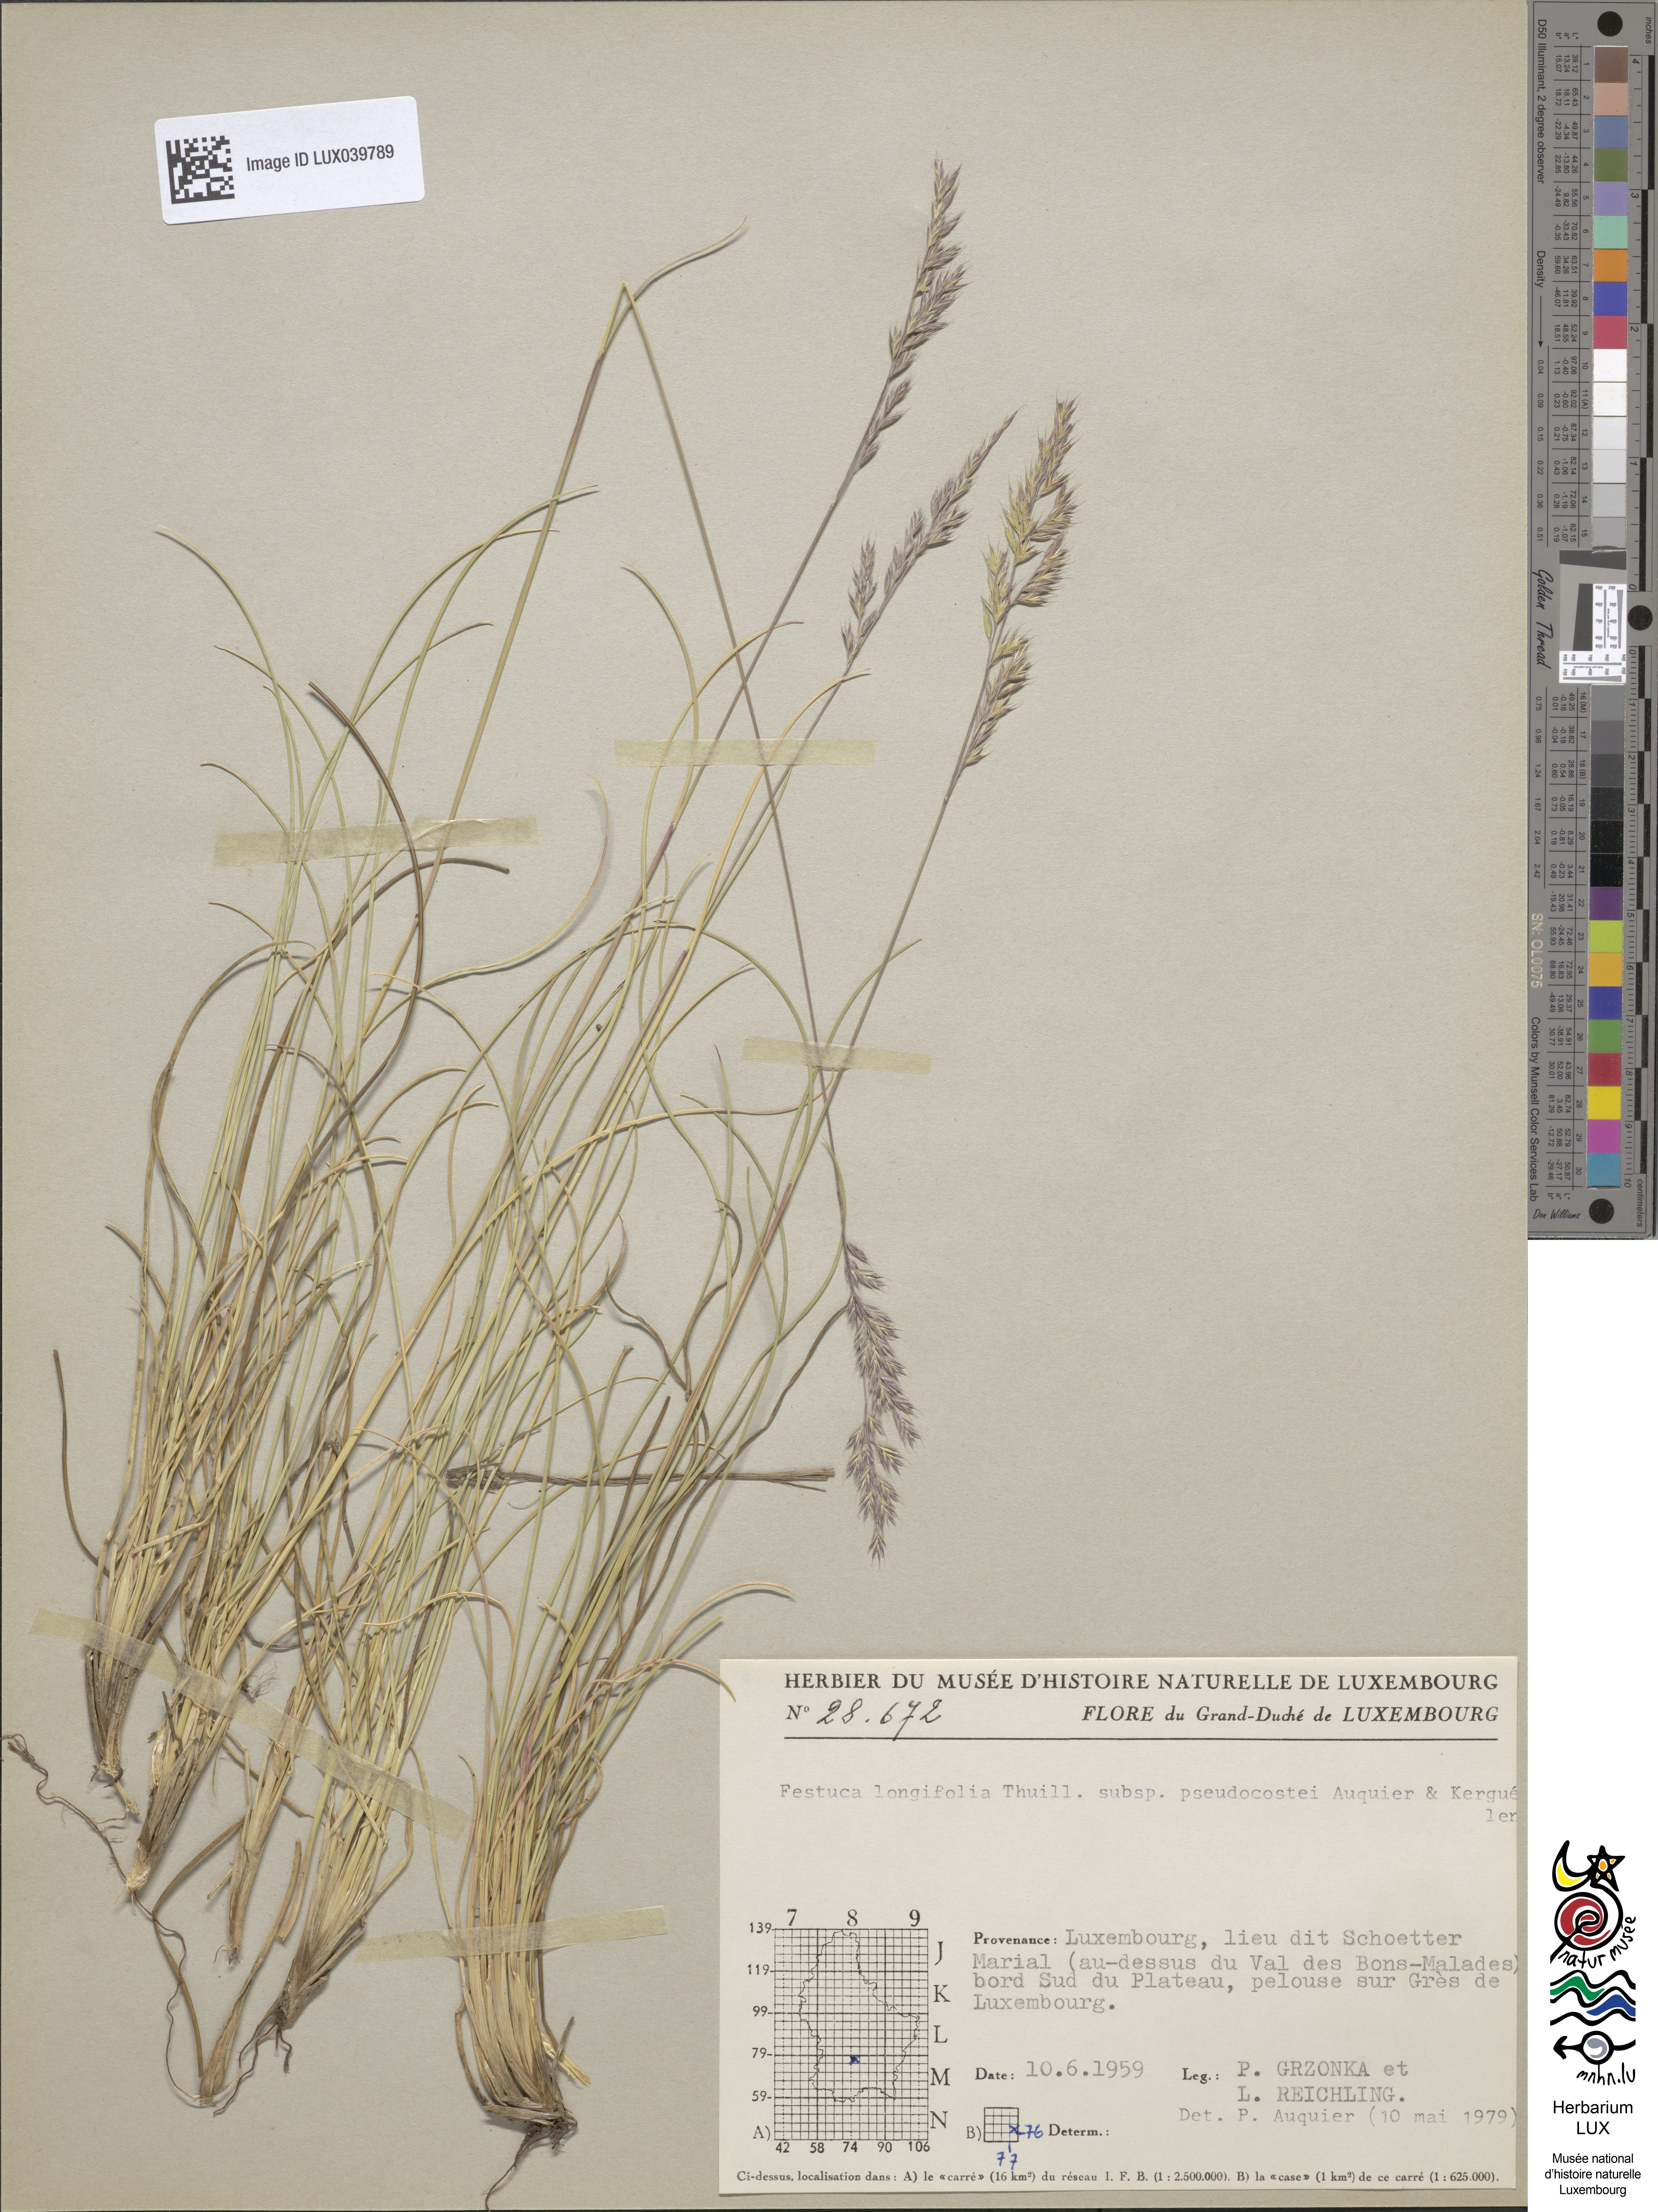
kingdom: Plantae
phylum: Tracheophyta
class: Liliopsida
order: Poales
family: Poaceae
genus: Festuca
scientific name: Festuca longifolia
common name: Blue fescue
